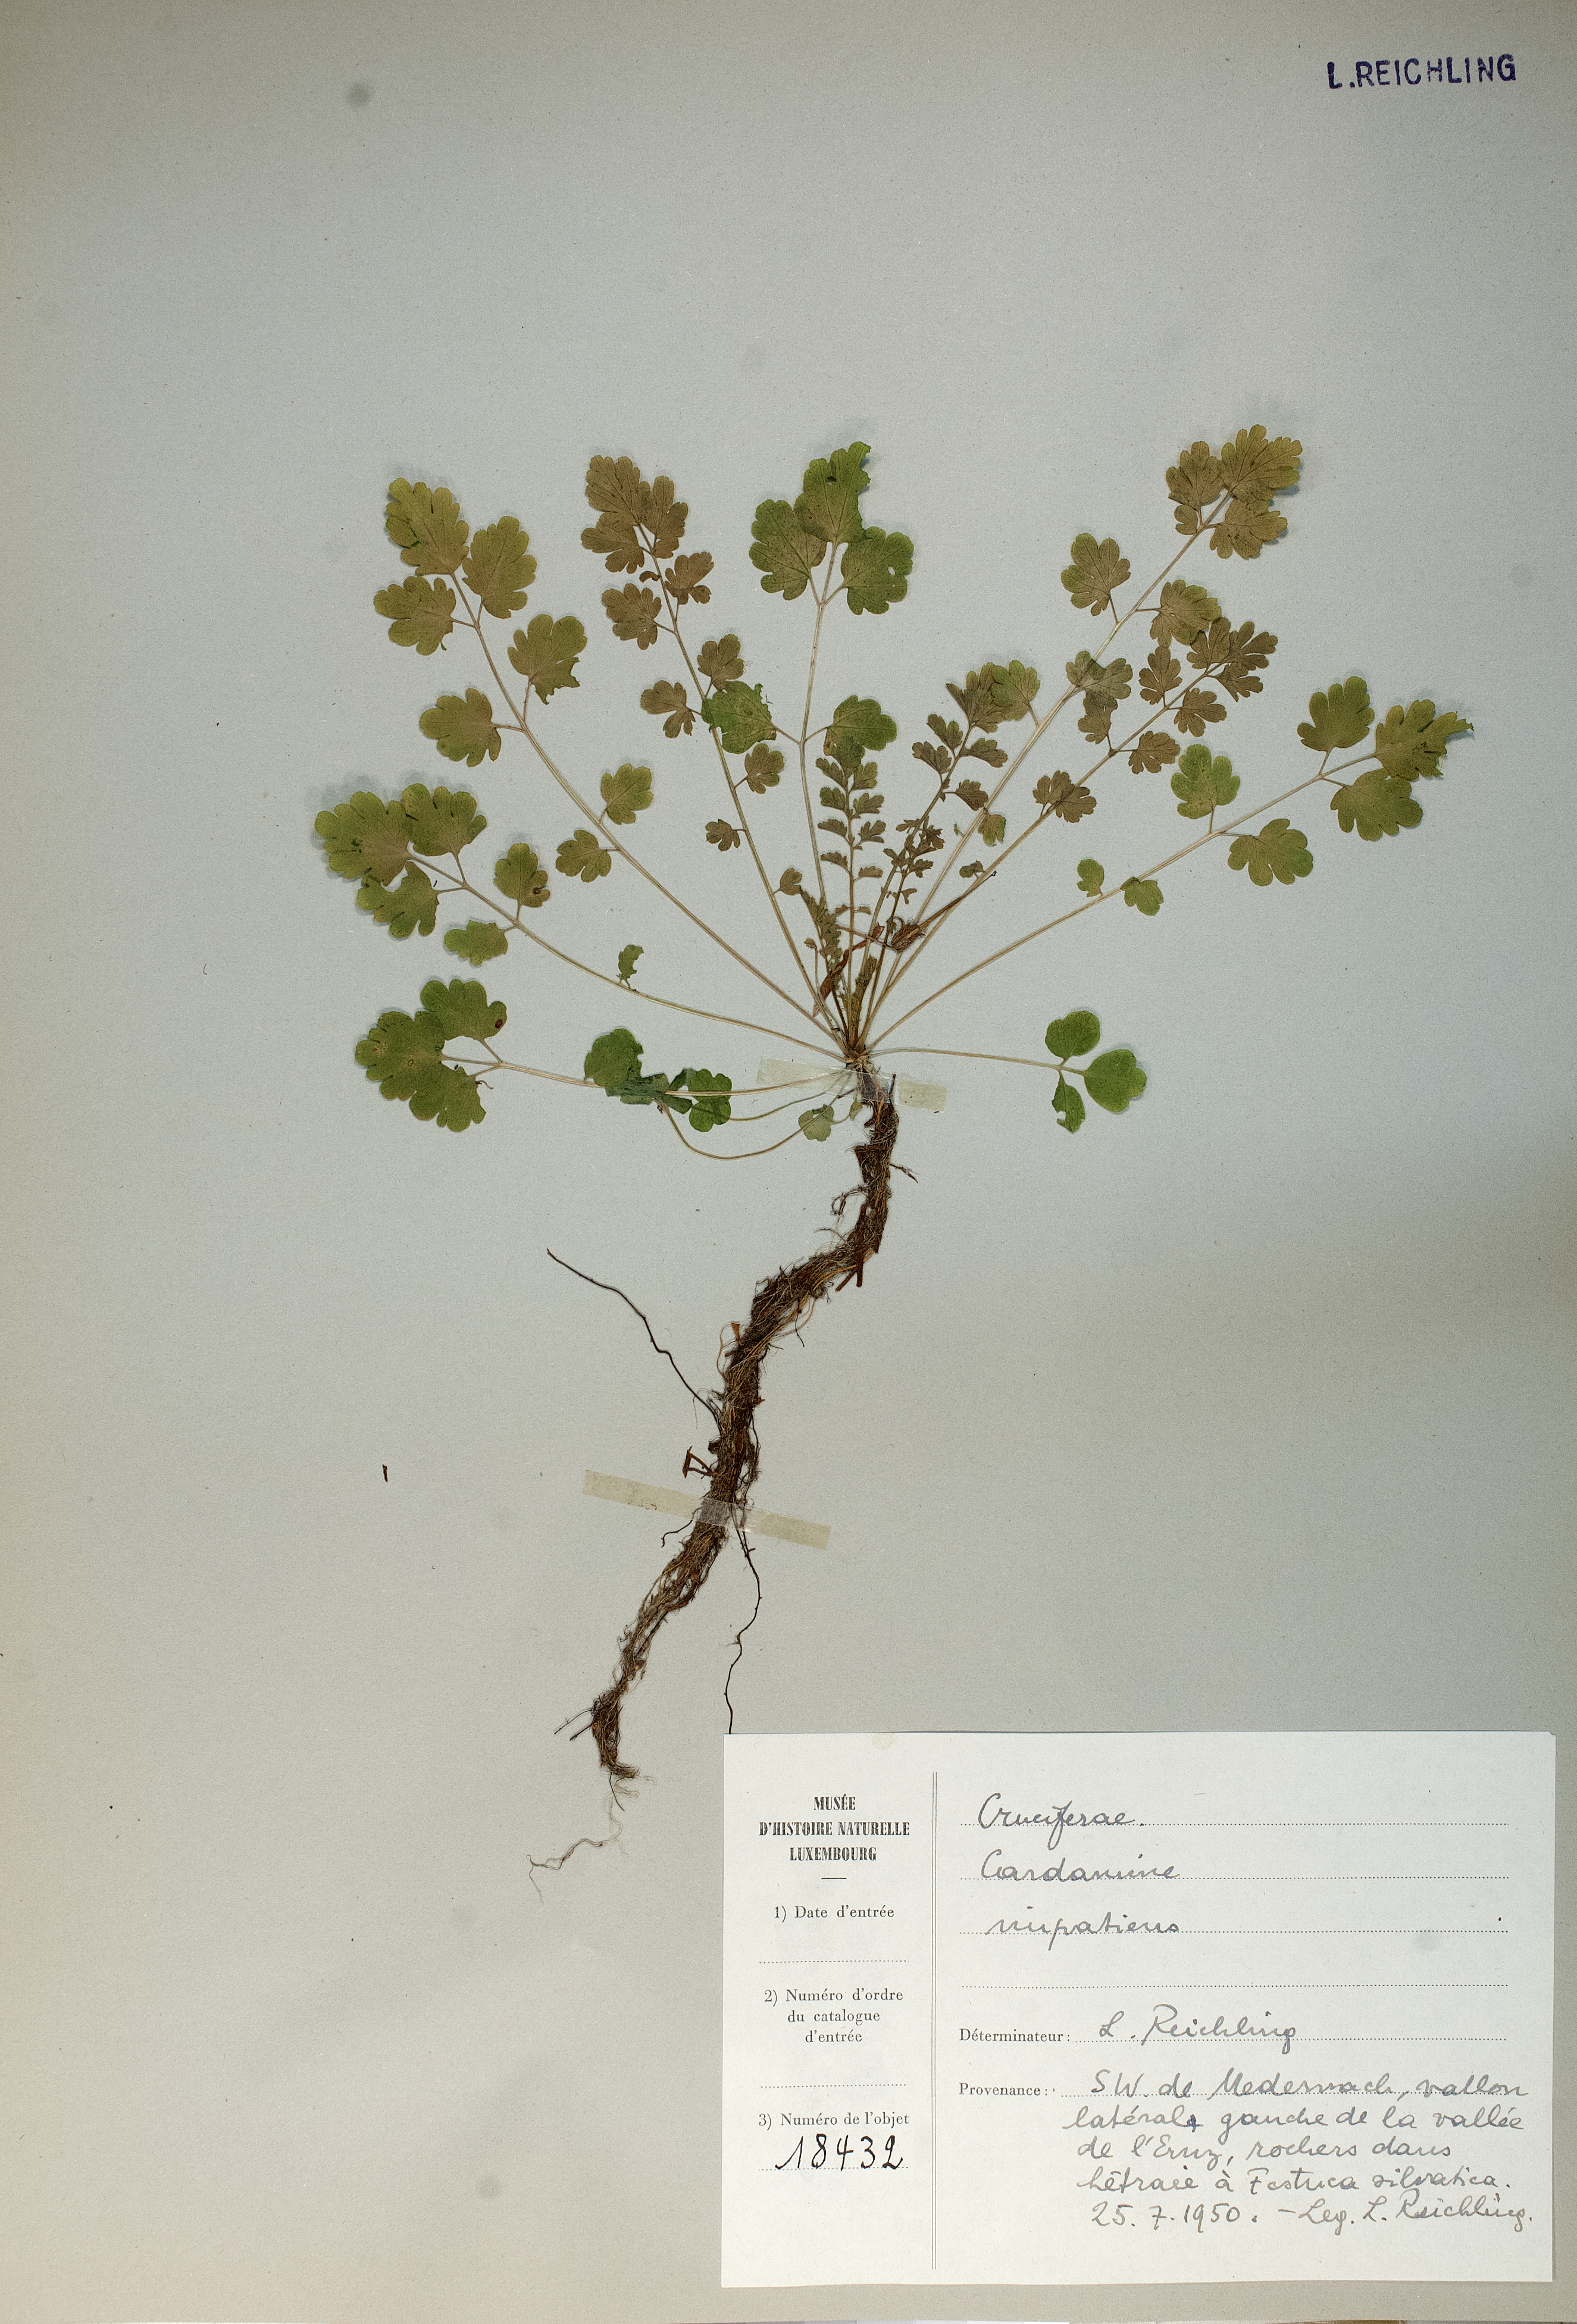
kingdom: Plantae
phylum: Tracheophyta
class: Magnoliopsida
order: Brassicales
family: Brassicaceae
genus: Cardamine
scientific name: Cardamine impatiens
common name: Narrow-leaved bitter-cress
